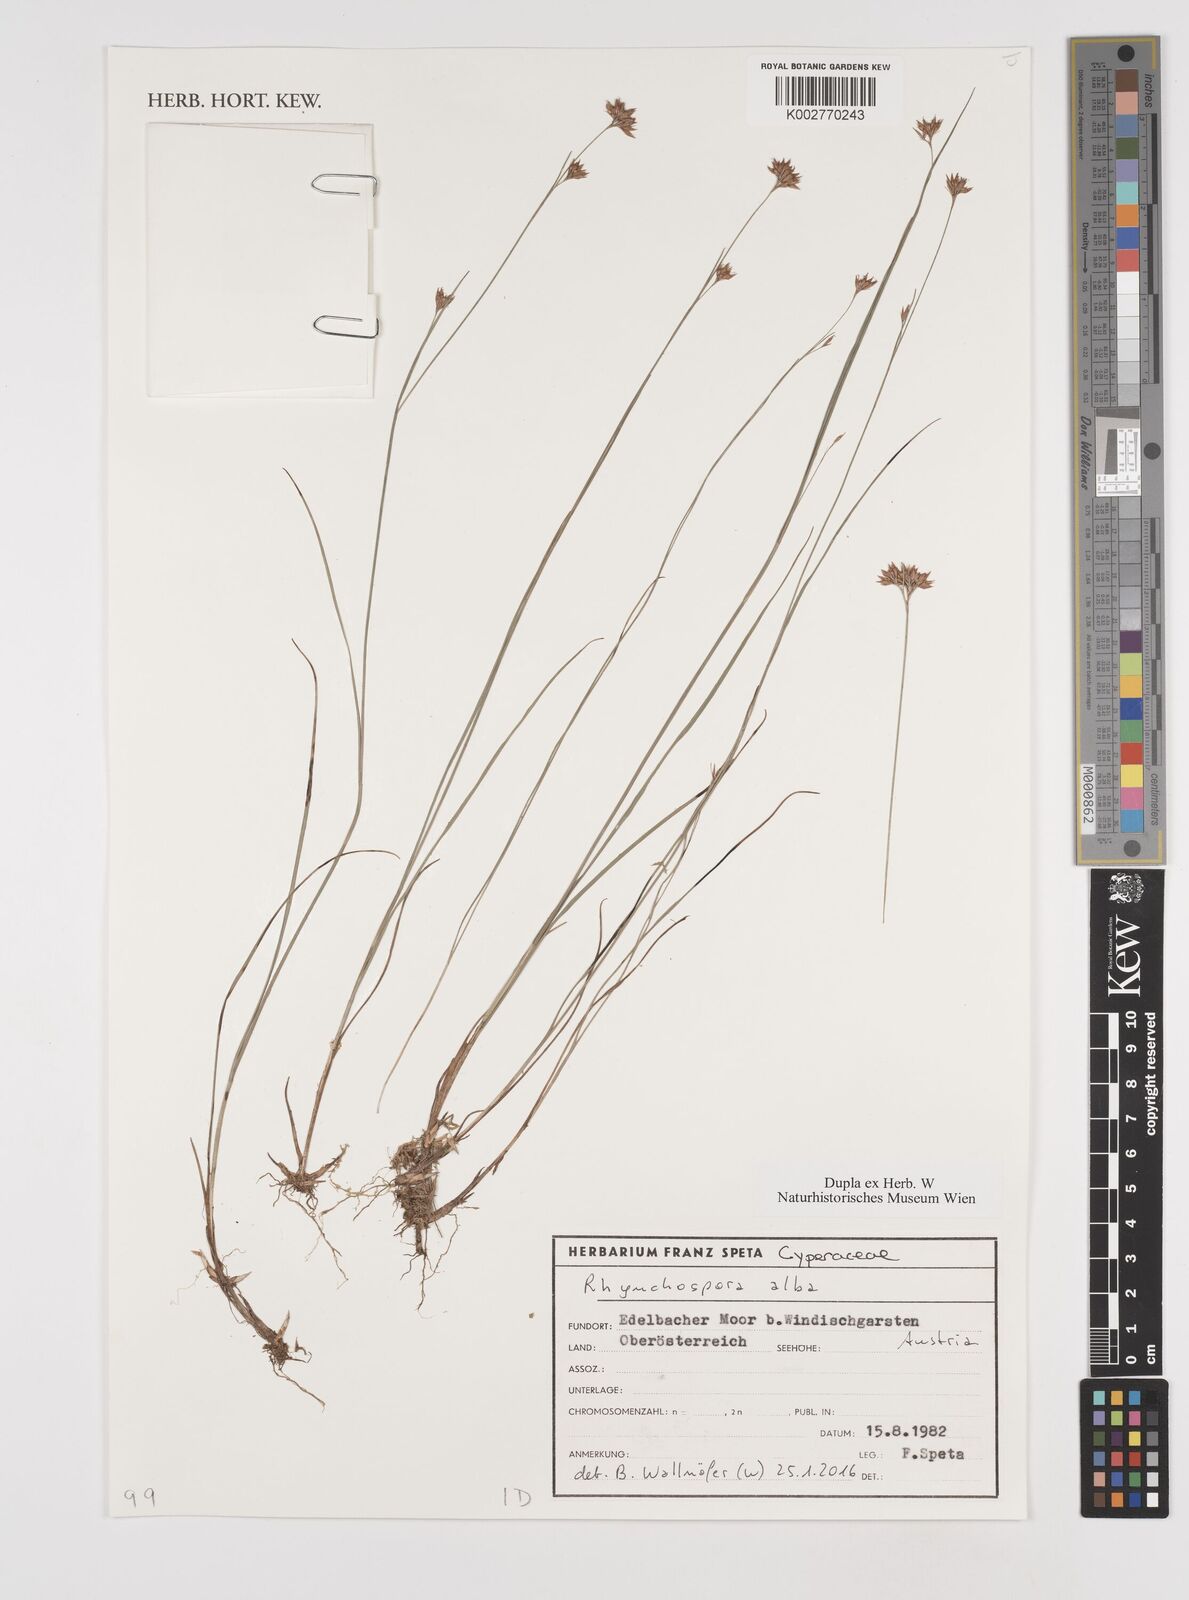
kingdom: Plantae
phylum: Tracheophyta
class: Liliopsida
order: Poales
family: Cyperaceae
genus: Rhynchospora
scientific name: Rhynchospora alba
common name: White beak-sedge
